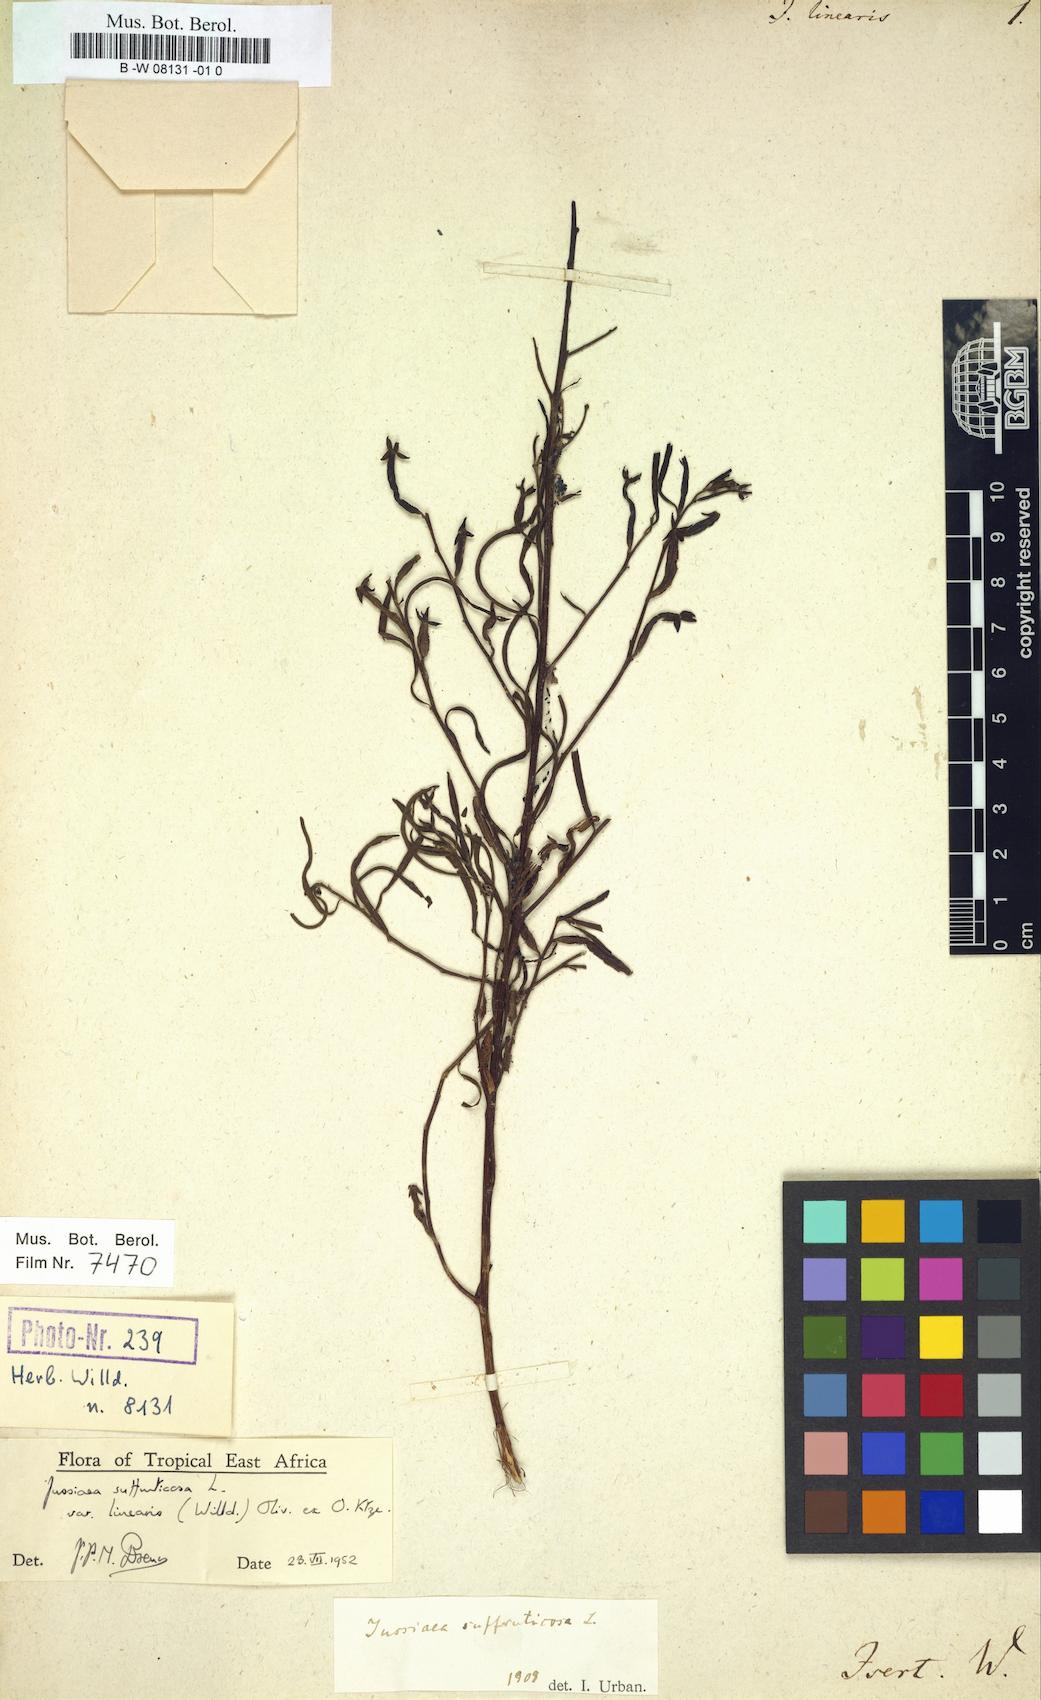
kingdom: Plantae
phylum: Tracheophyta
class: Magnoliopsida
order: Myrtales
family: Onagraceae
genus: Ludwigia
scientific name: Ludwigia octovalvis
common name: Water-primrose
